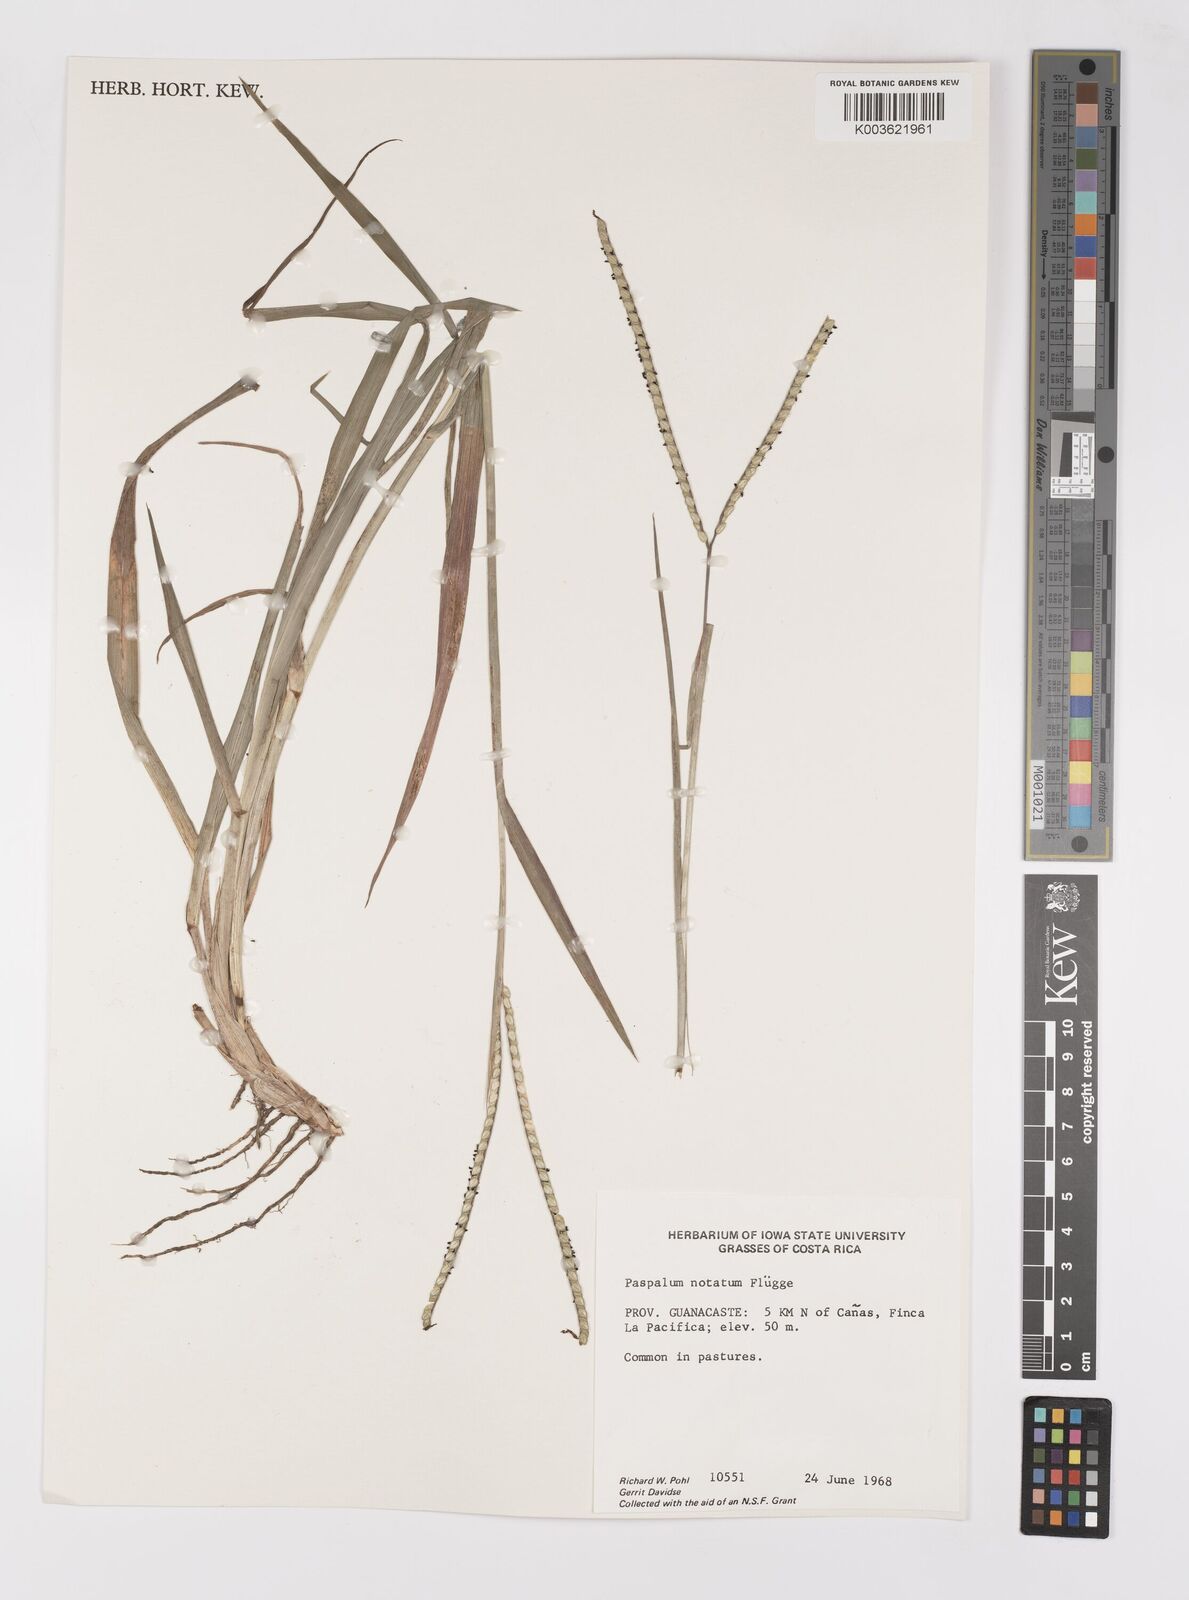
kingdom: Plantae
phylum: Tracheophyta
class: Liliopsida
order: Poales
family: Poaceae
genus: Paspalum
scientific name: Paspalum notatum
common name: Bahiagrass
